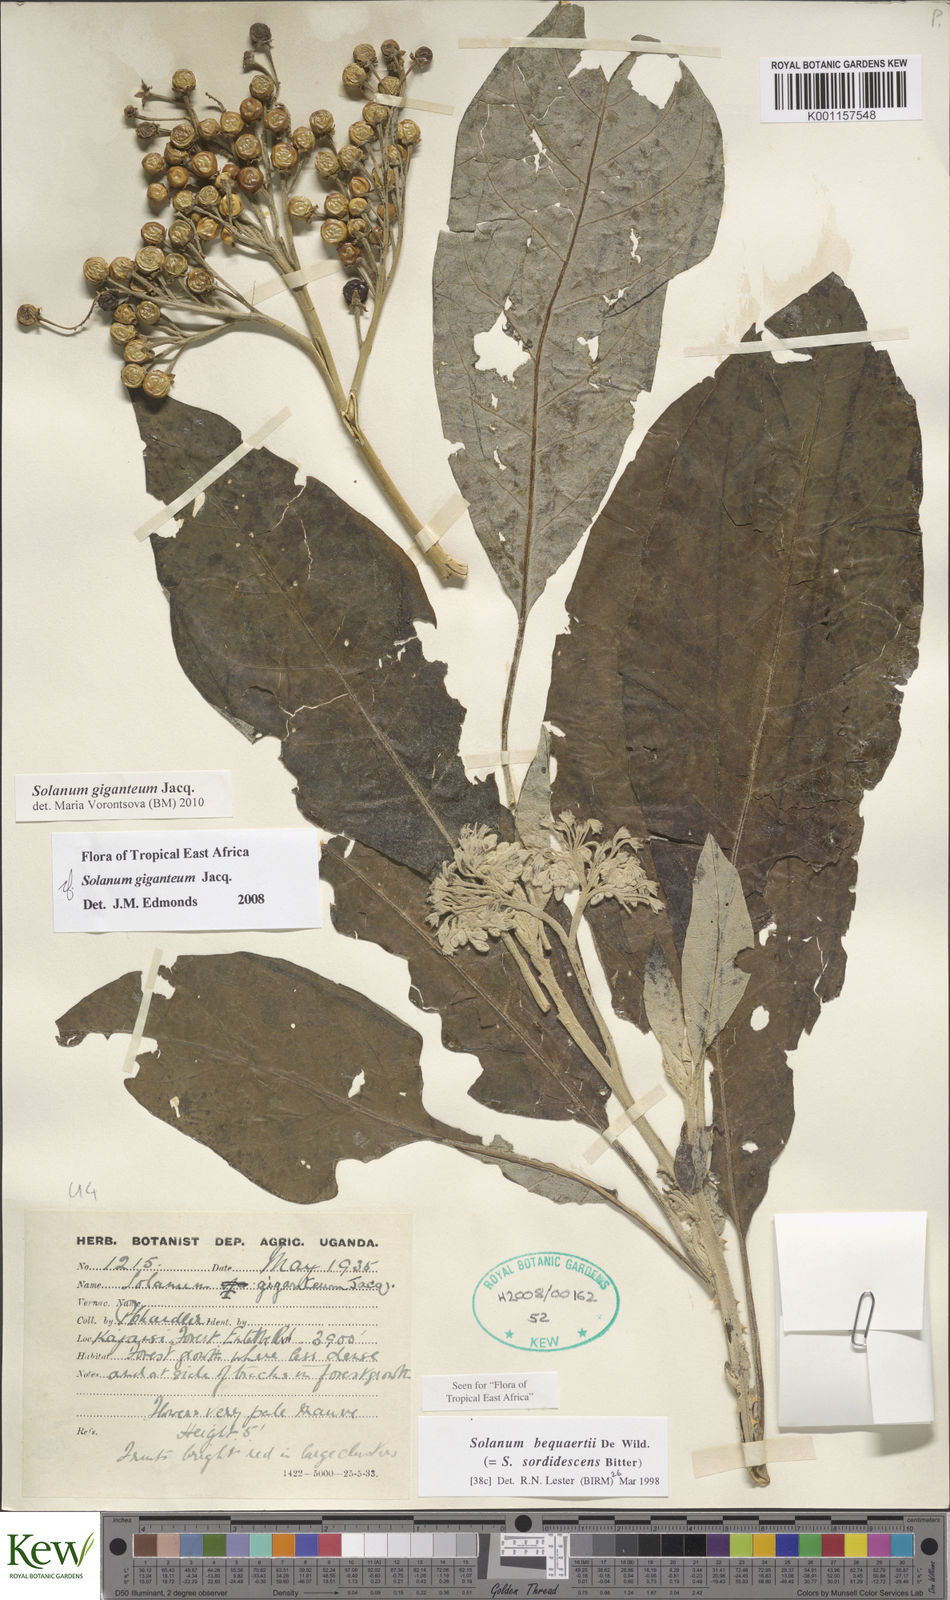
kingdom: Plantae
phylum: Tracheophyta
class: Magnoliopsida
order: Solanales
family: Solanaceae
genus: Solanum
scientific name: Solanum giganteum
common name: Healing-leaf-tree
